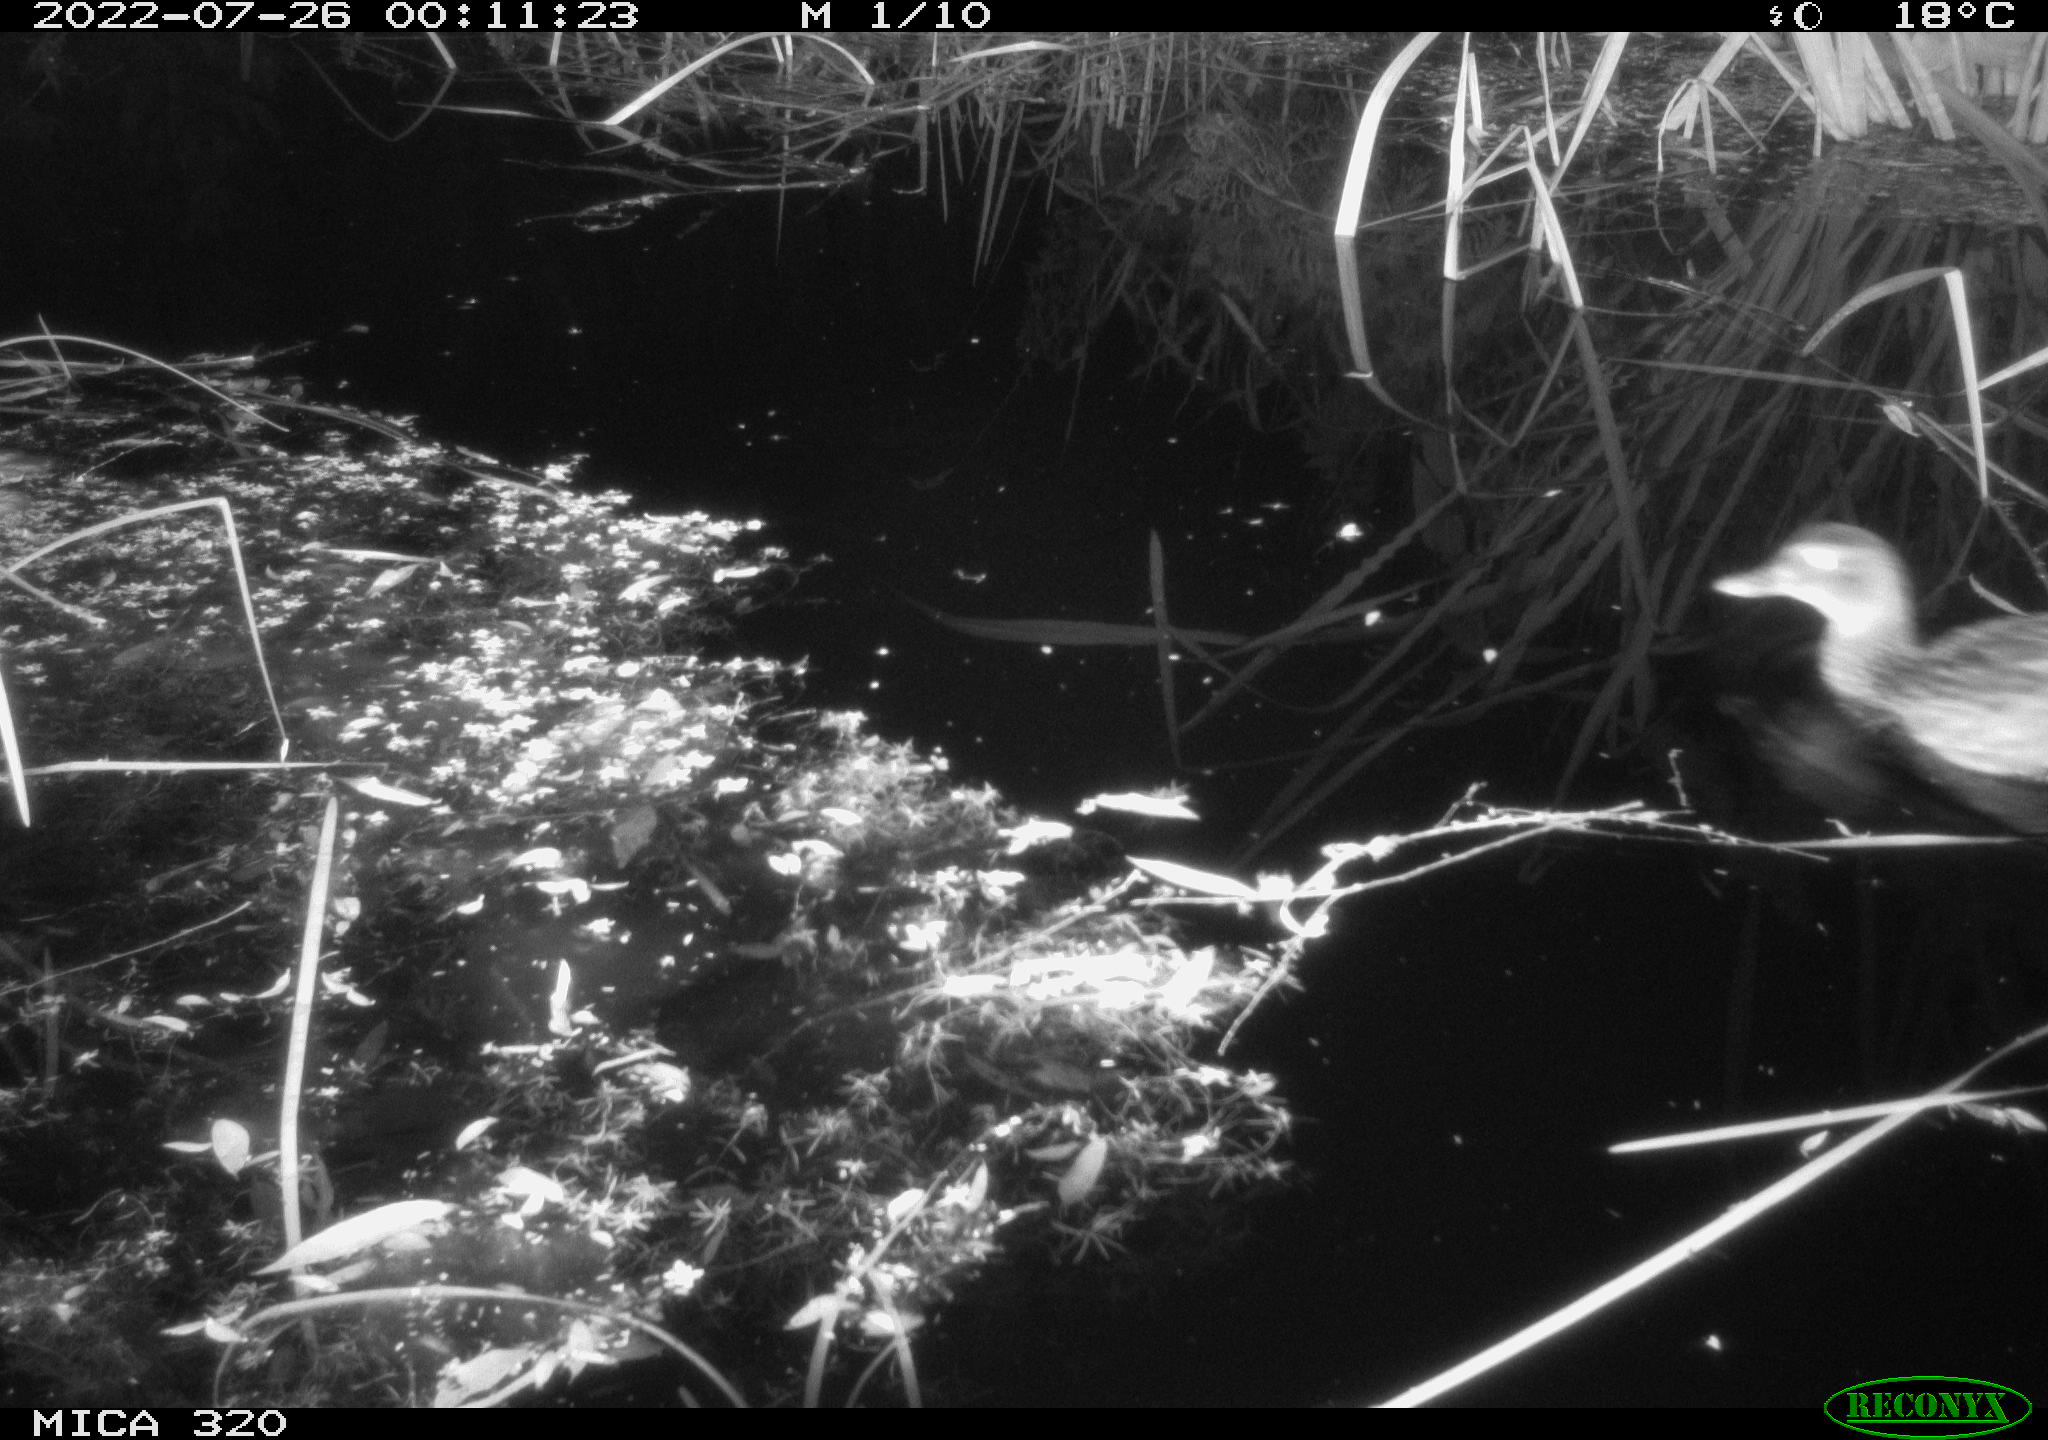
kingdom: Animalia
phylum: Chordata
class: Aves
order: Anseriformes
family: Anatidae
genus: Anas
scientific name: Anas platyrhynchos
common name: Mallard
